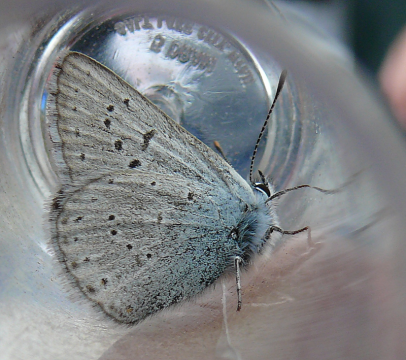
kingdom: Animalia
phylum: Arthropoda
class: Insecta
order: Lepidoptera
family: Lycaenidae
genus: Plebejus
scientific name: Plebejus saepiolus
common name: Greenish Blue
